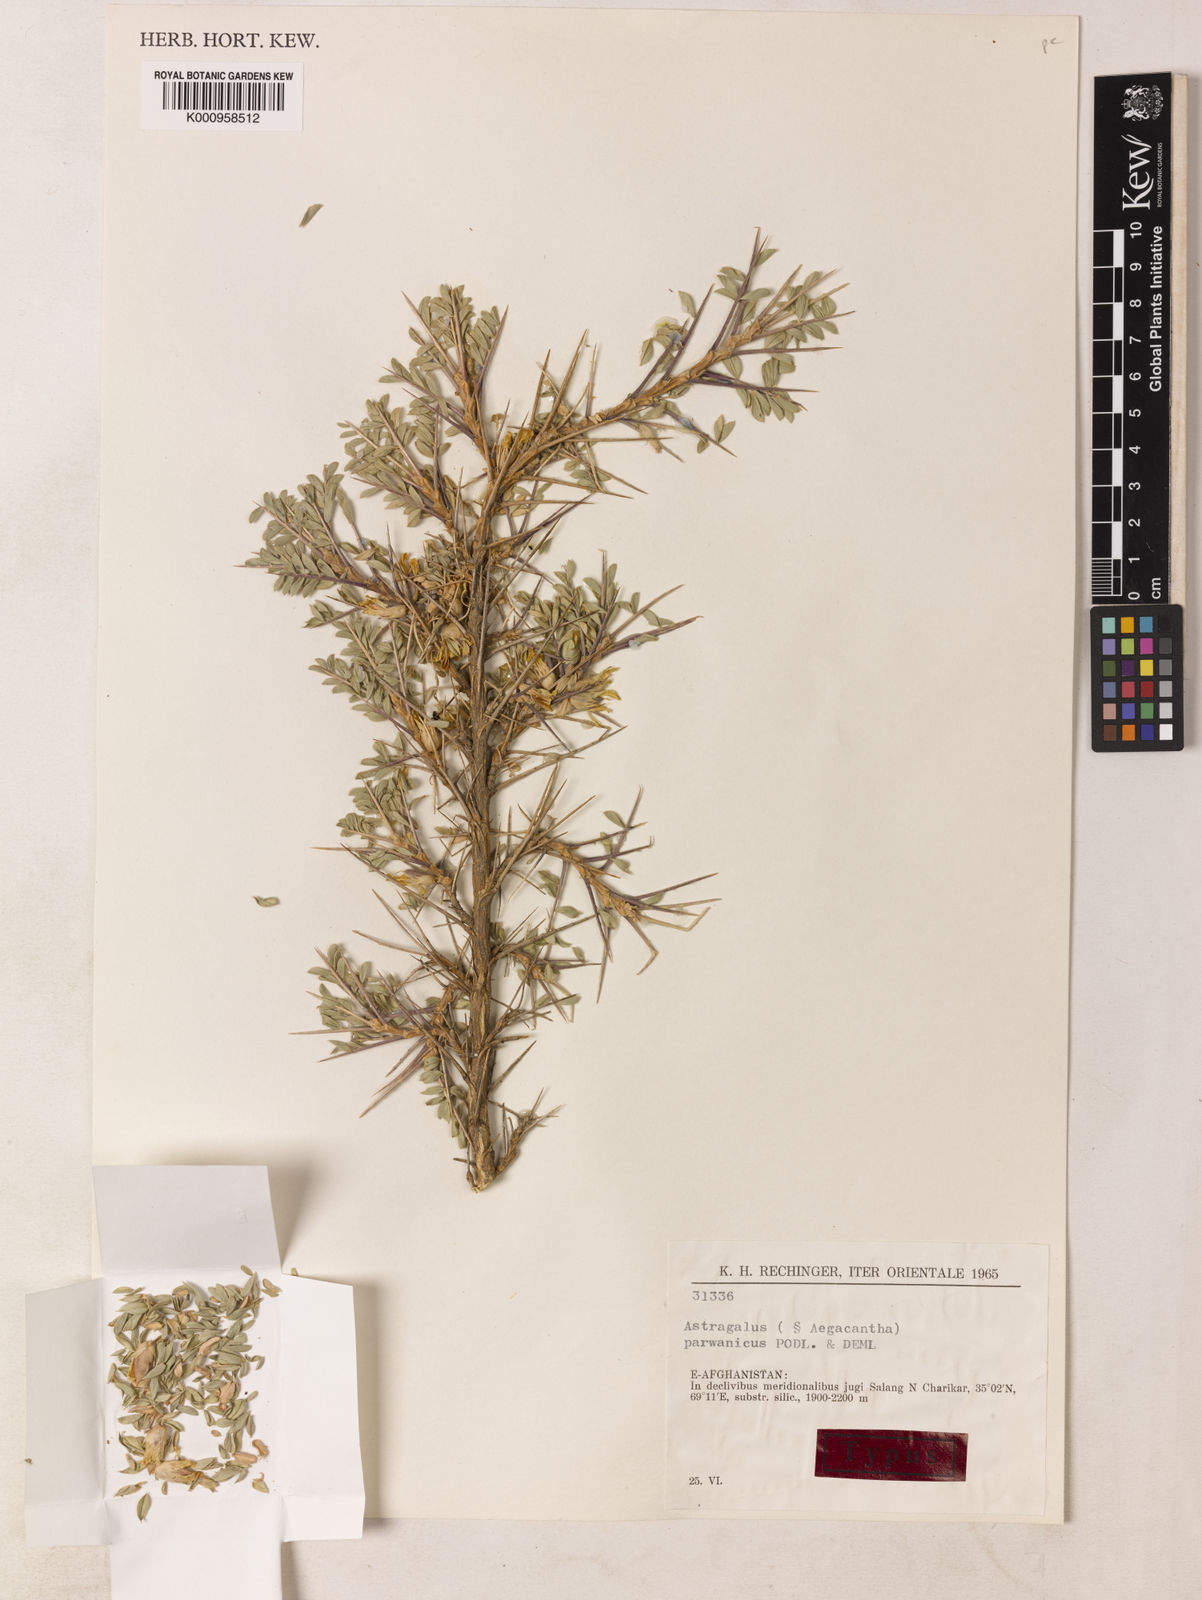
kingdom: Plantae
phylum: Tracheophyta
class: Magnoliopsida
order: Fabales
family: Fabaceae
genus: Astragalus
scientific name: Astragalus
